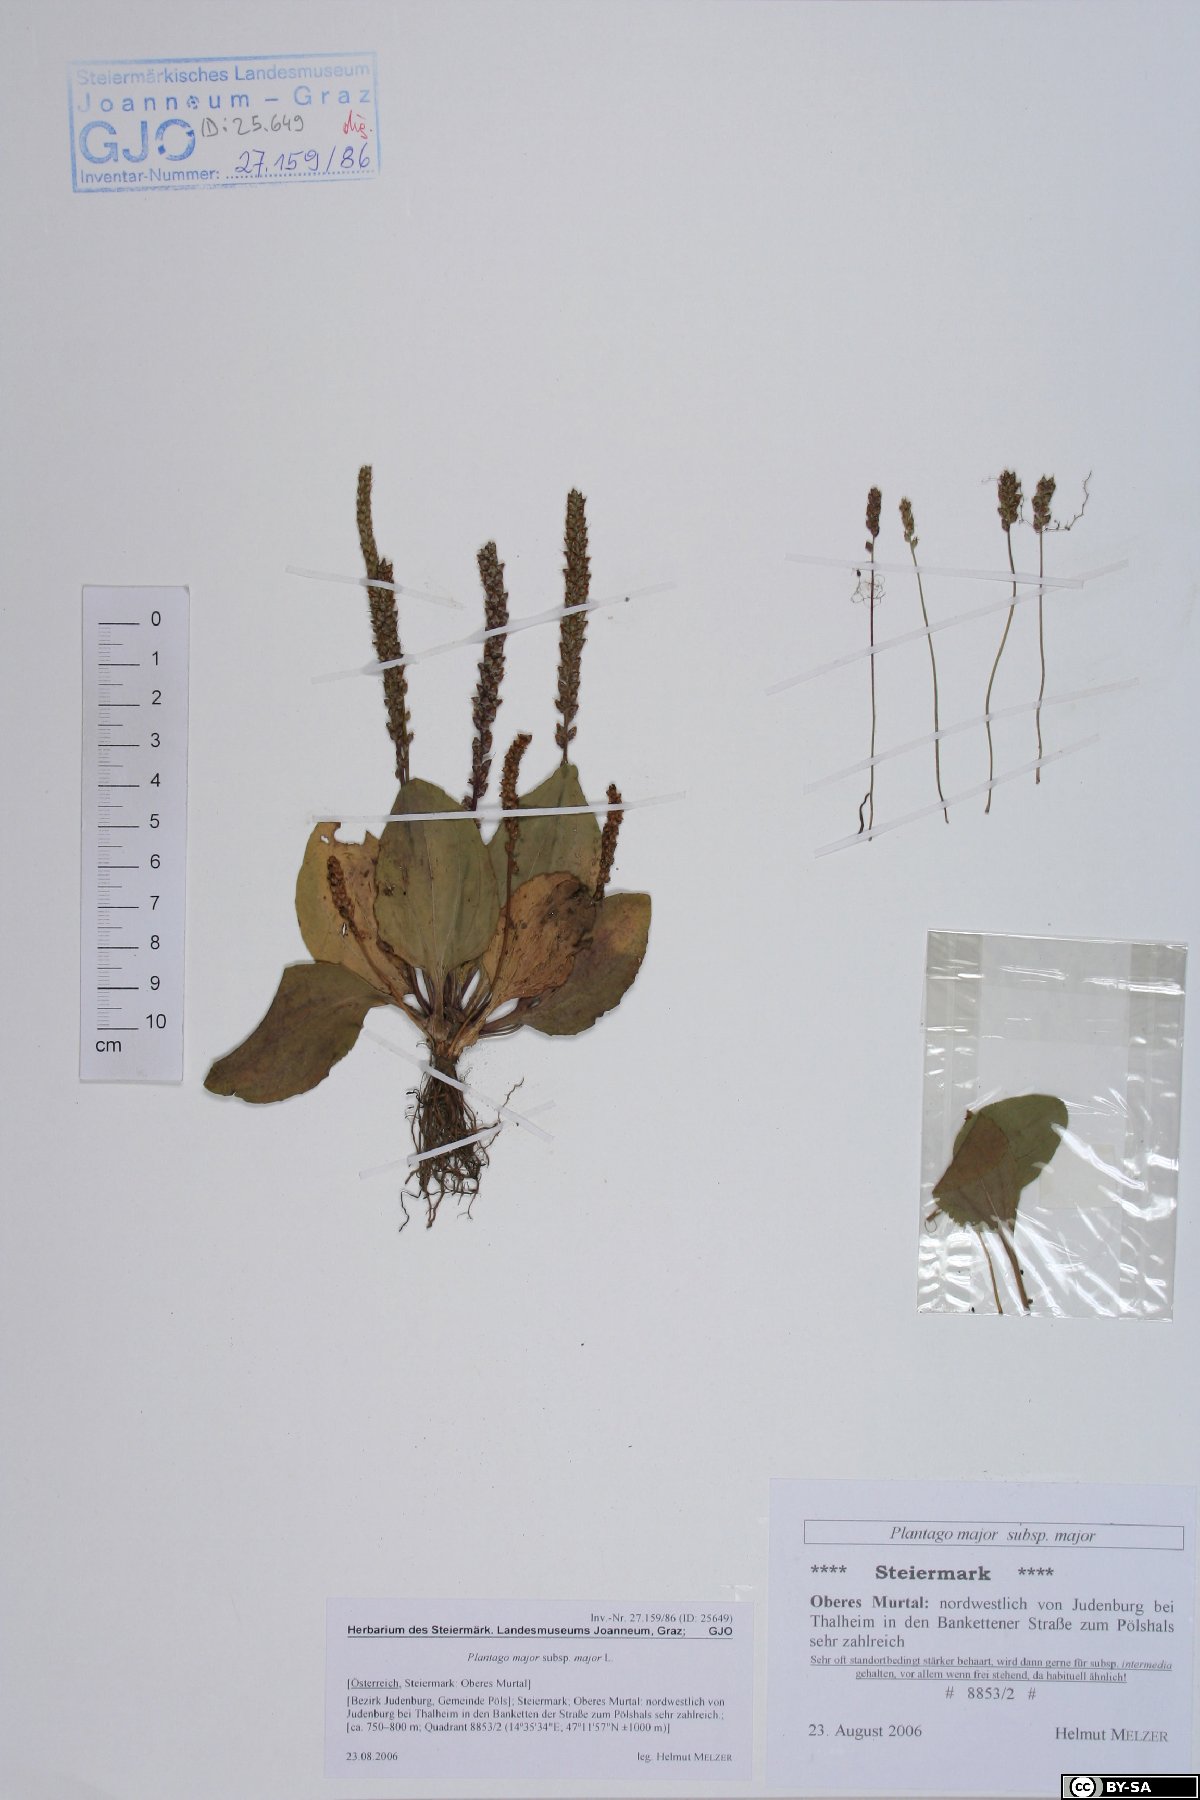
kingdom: Plantae
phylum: Tracheophyta
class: Magnoliopsida
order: Lamiales
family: Plantaginaceae
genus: Plantago
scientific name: Plantago major
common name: Common plantain
